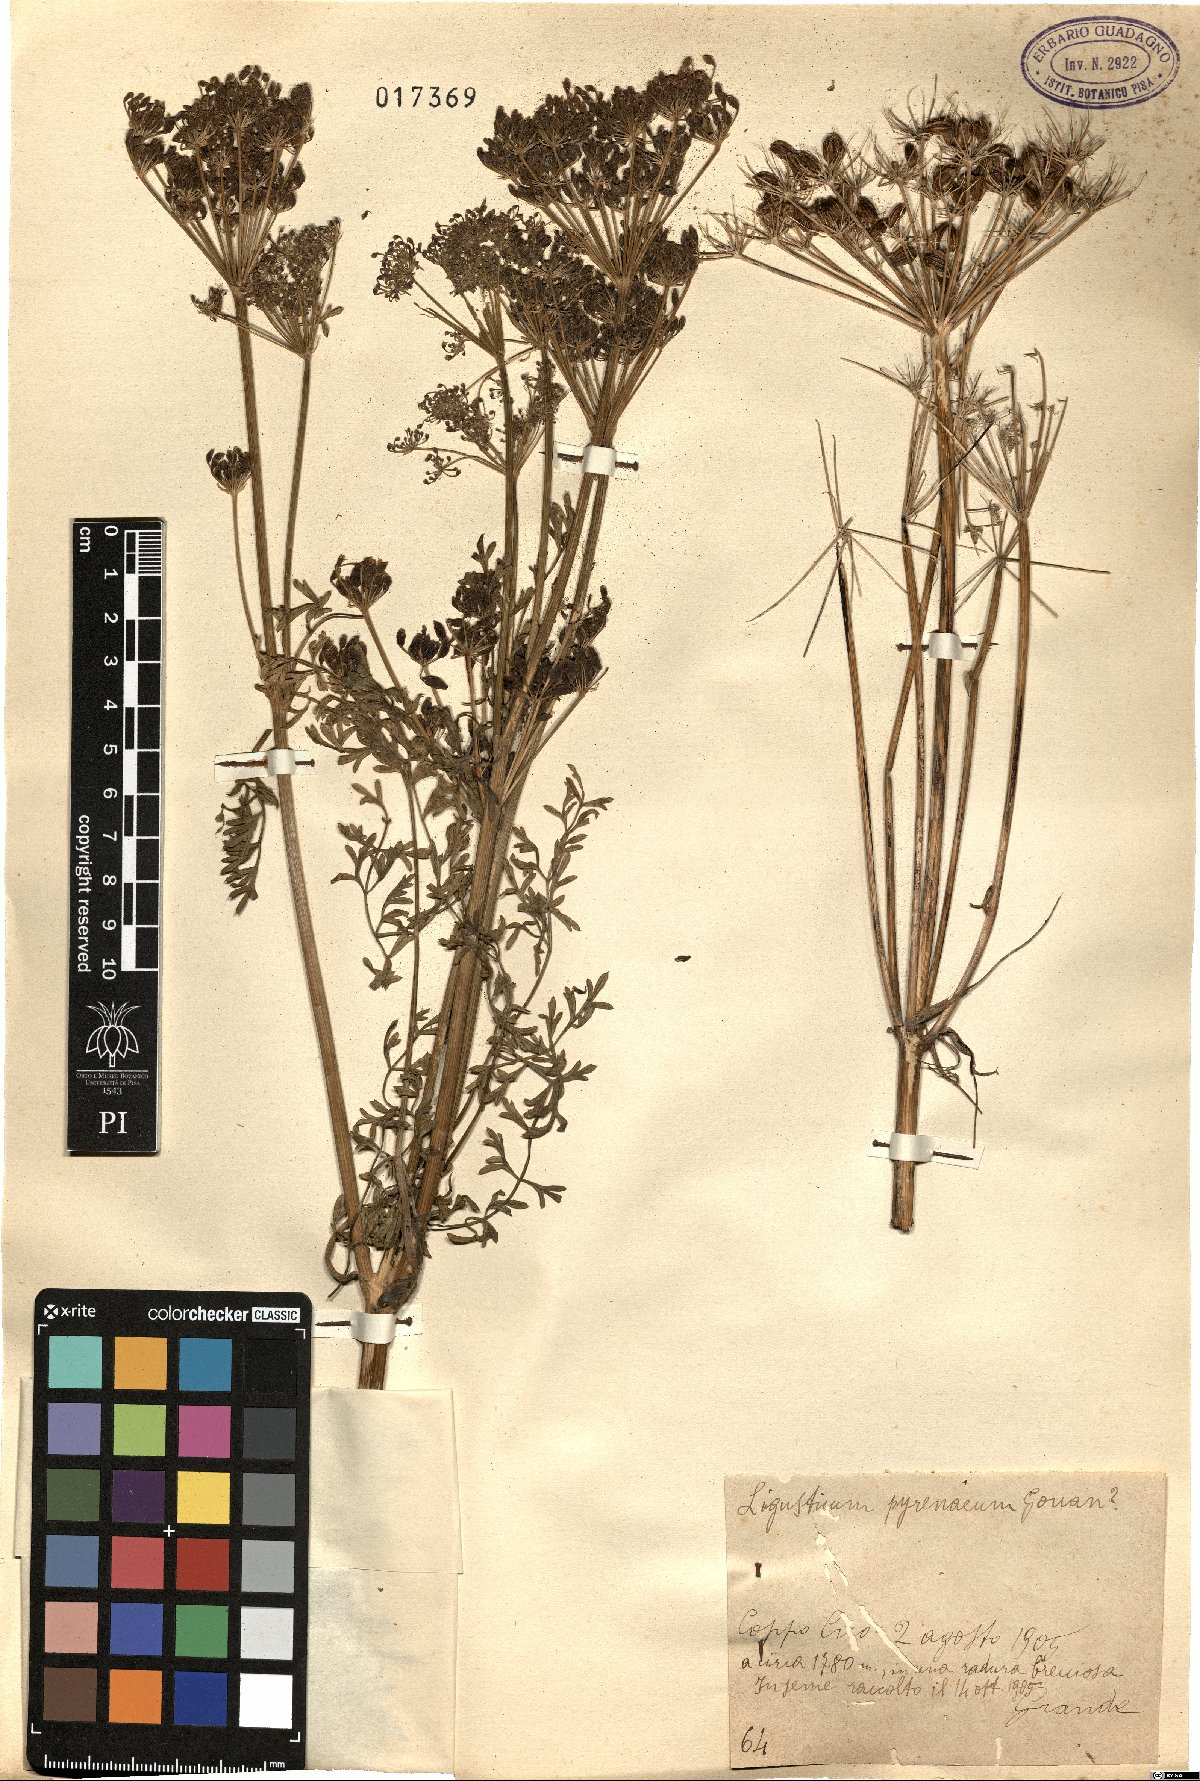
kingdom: Plantae
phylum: Tracheophyta
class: Magnoliopsida
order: Apiales
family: Apiaceae
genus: Coristospermum
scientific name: Coristospermum lucidum
